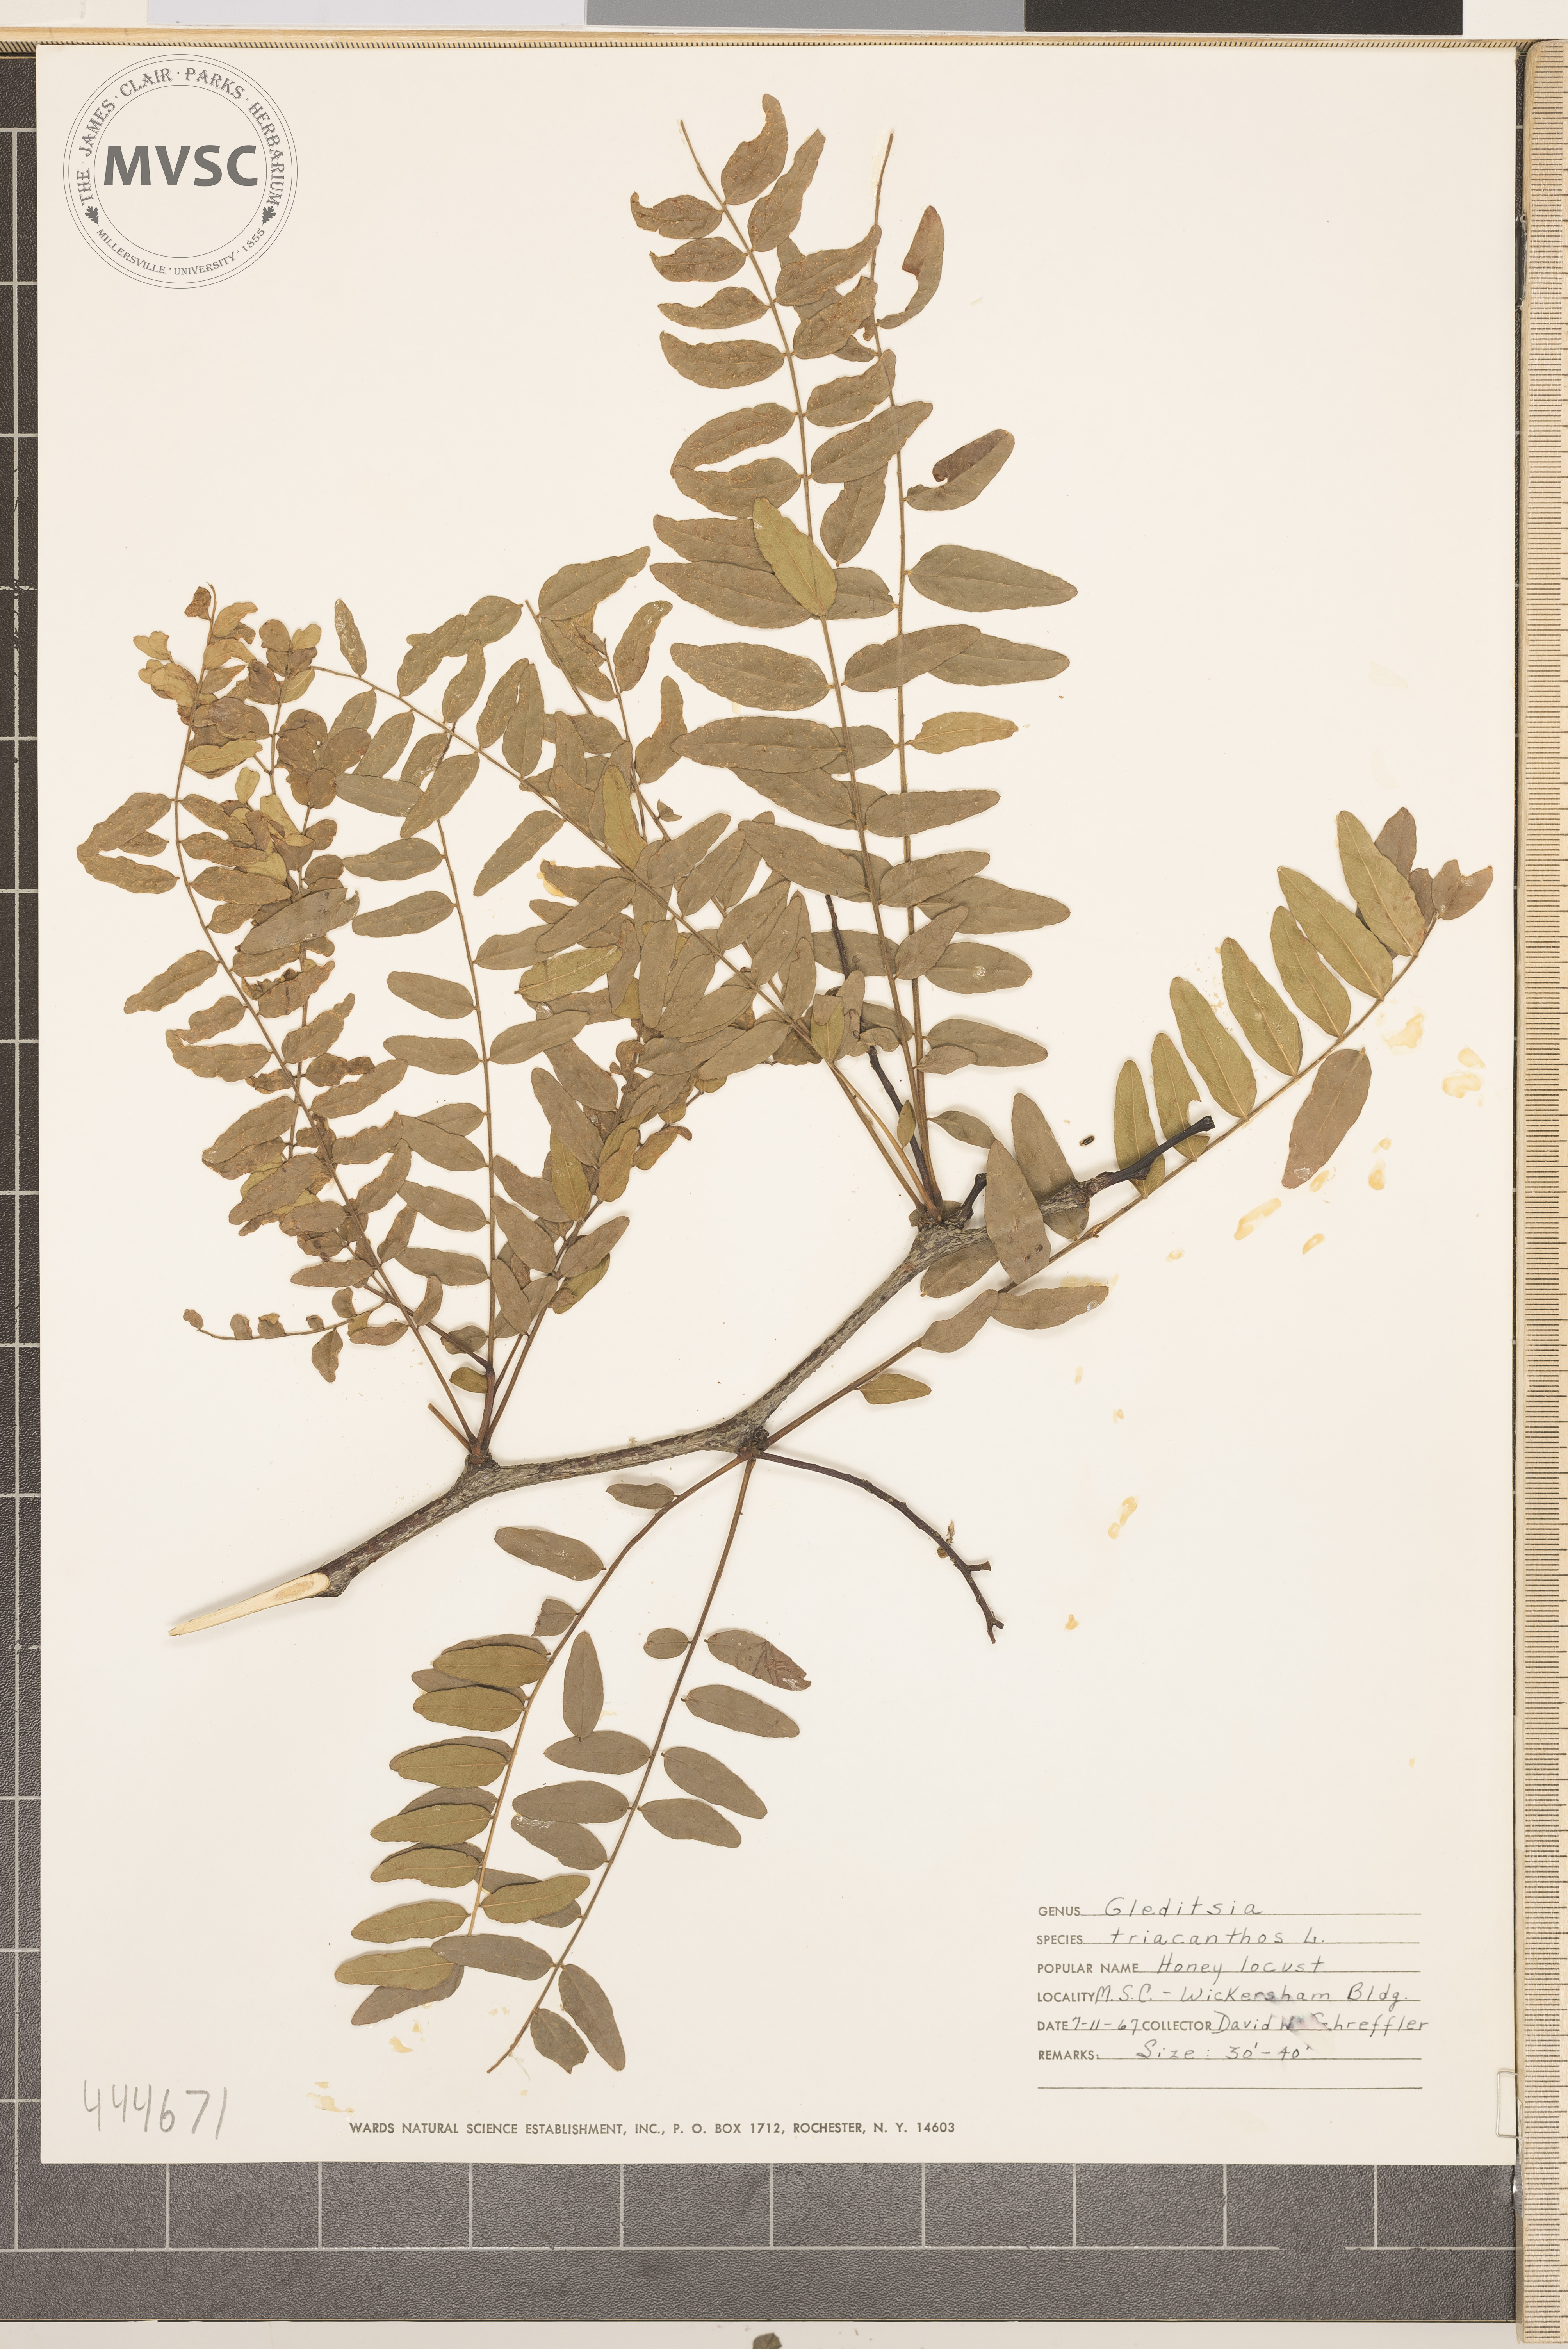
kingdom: Plantae
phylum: Tracheophyta
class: Magnoliopsida
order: Fabales
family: Fabaceae
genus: Gleditsia
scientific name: Gleditsia triacanthos
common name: Honey Locust
